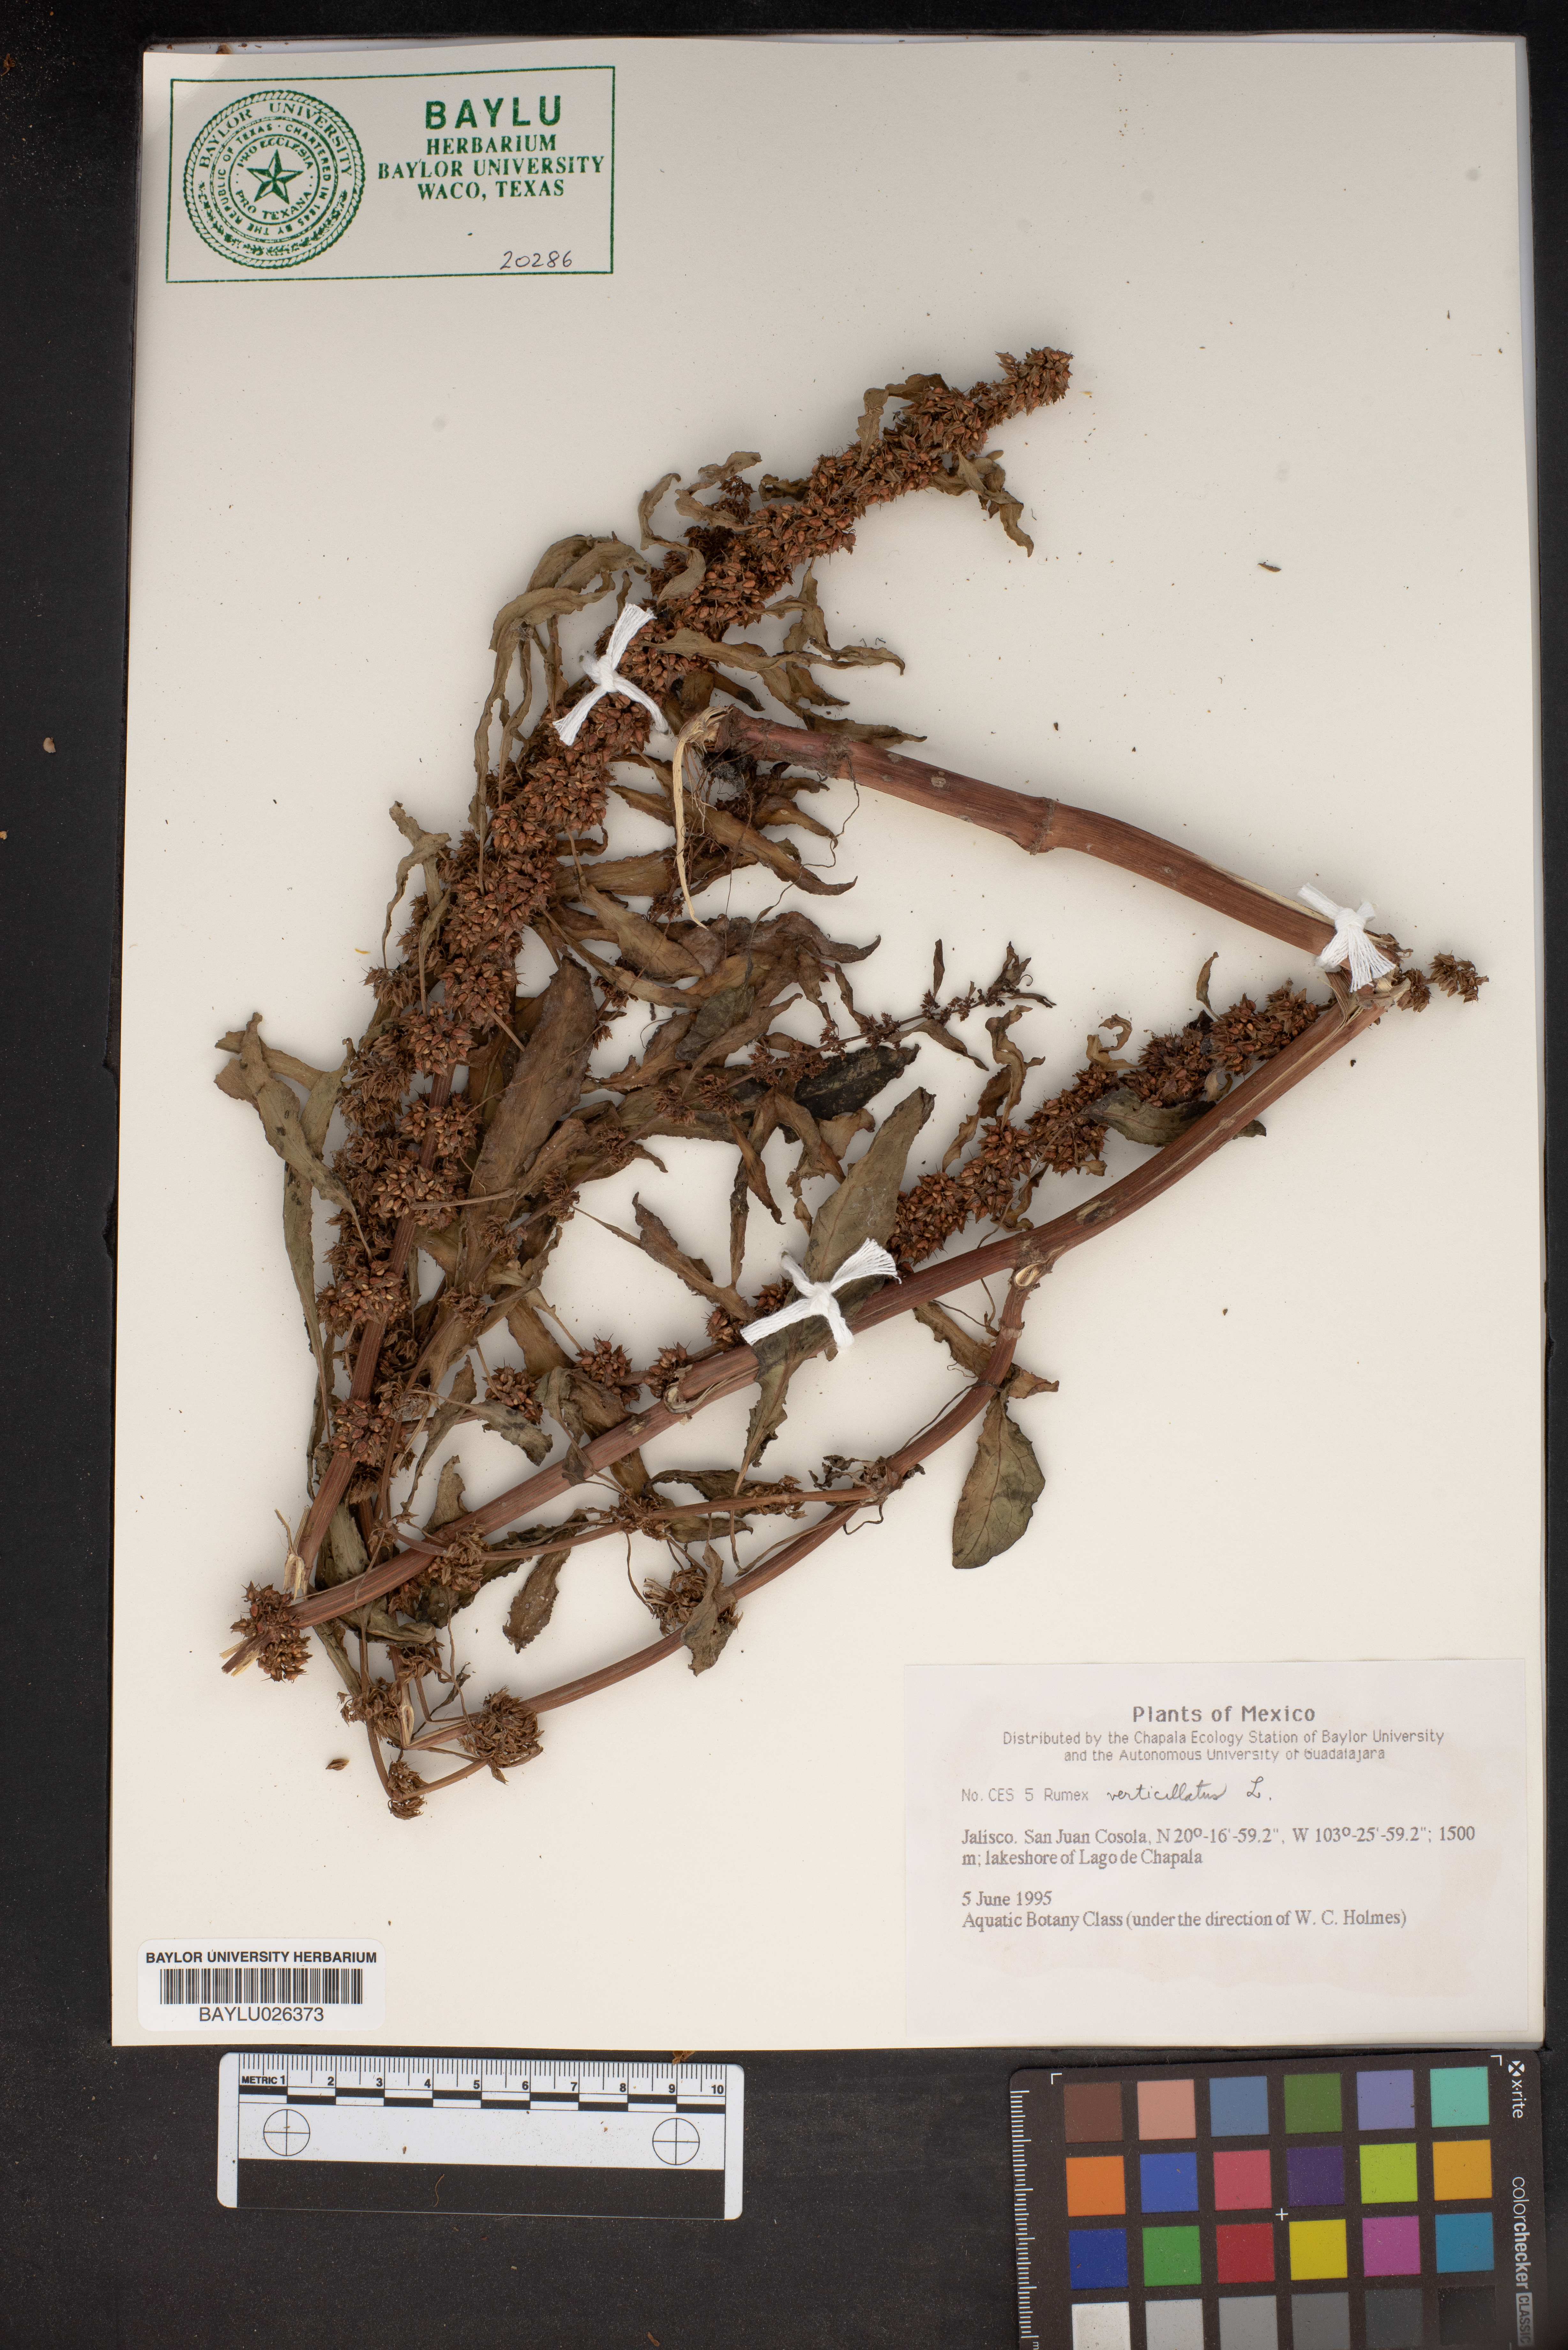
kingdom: Plantae
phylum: Tracheophyta
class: Magnoliopsida
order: Caryophyllales
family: Polygonaceae
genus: Rumex
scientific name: Rumex verticillatus
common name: Swamp dock
